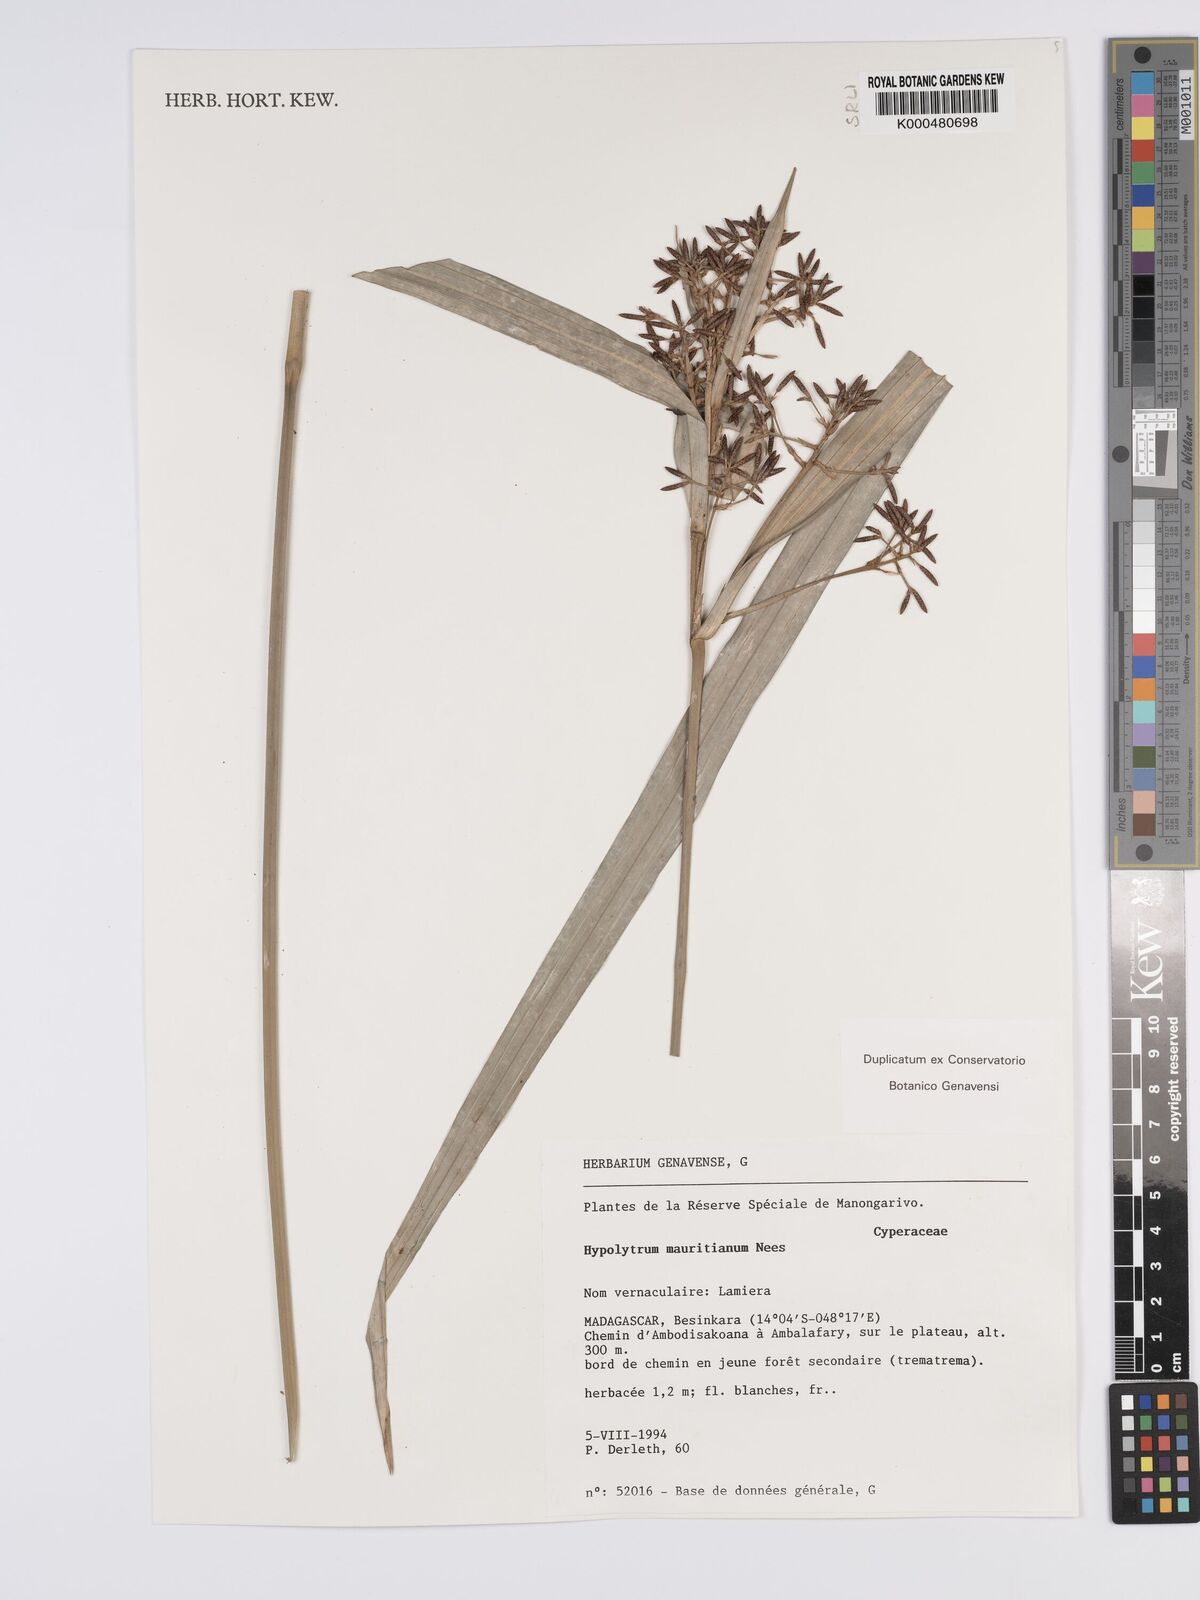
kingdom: Plantae
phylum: Tracheophyta
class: Liliopsida
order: Poales
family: Cyperaceae
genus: Hypolytrum
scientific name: Hypolytrum mauritianum
